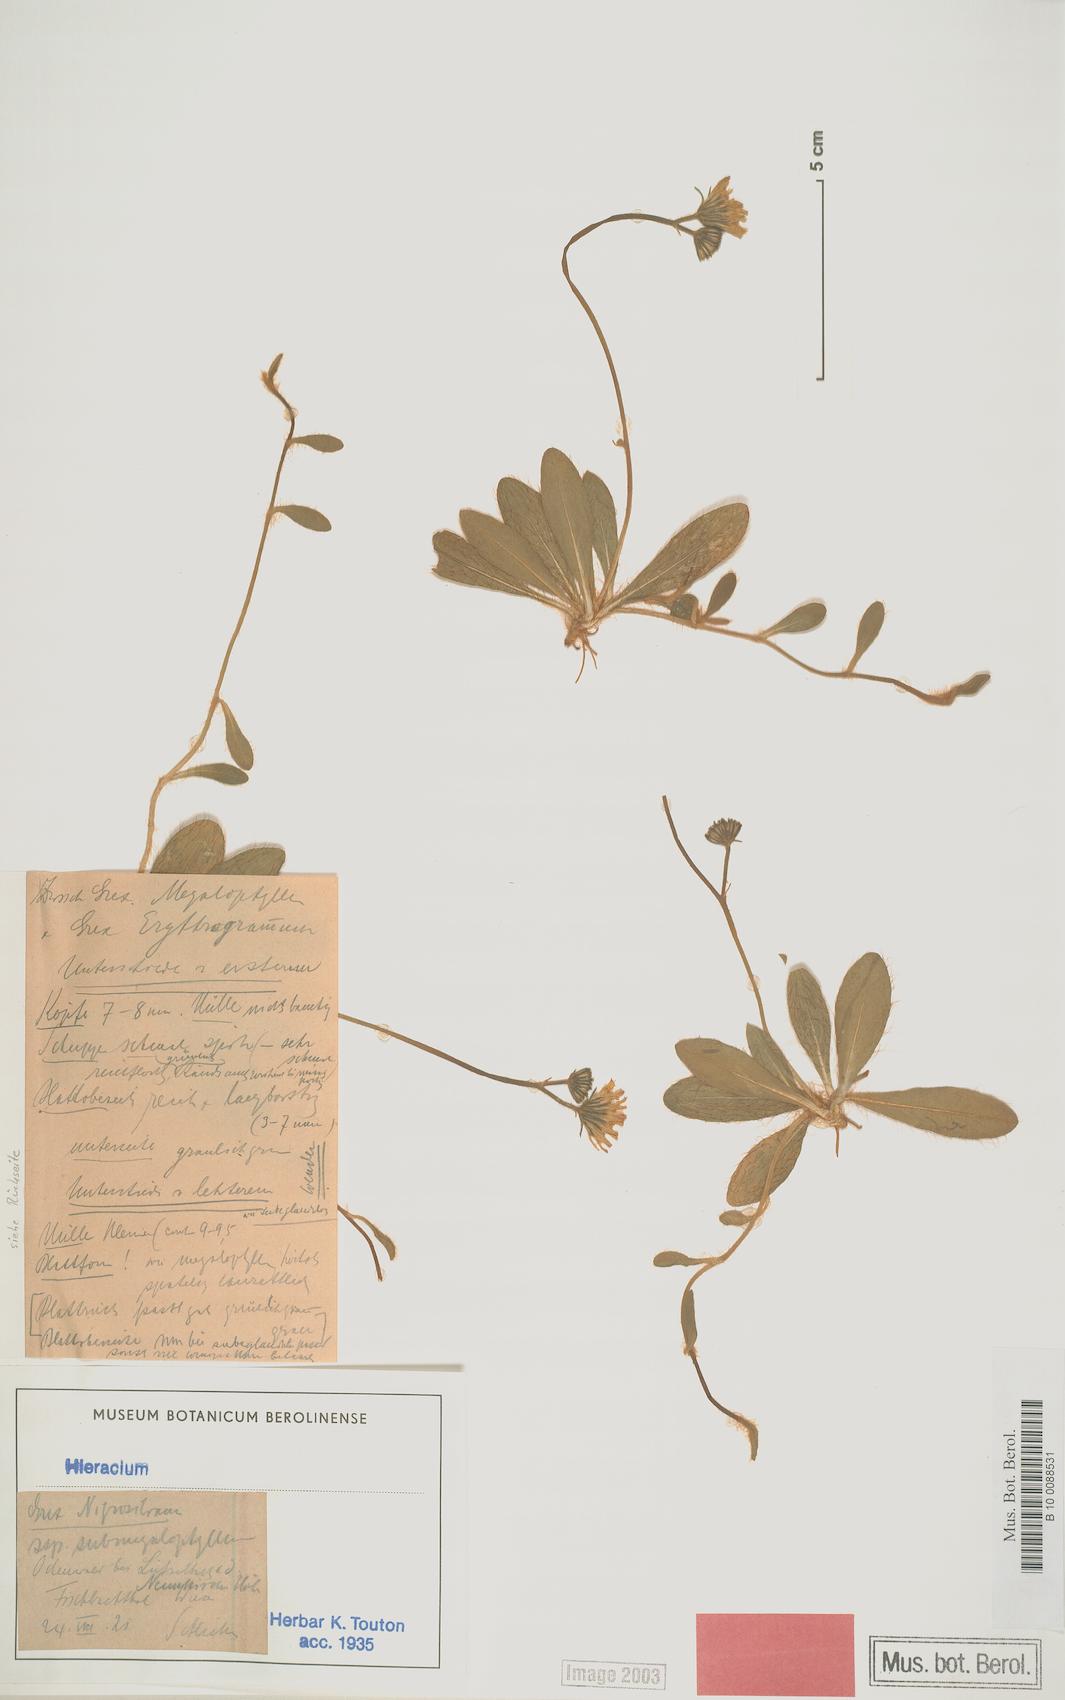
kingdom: Plantae
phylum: Tracheophyta
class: Magnoliopsida
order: Asterales
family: Asteraceae
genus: Pilosella
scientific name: Pilosella schultesii
